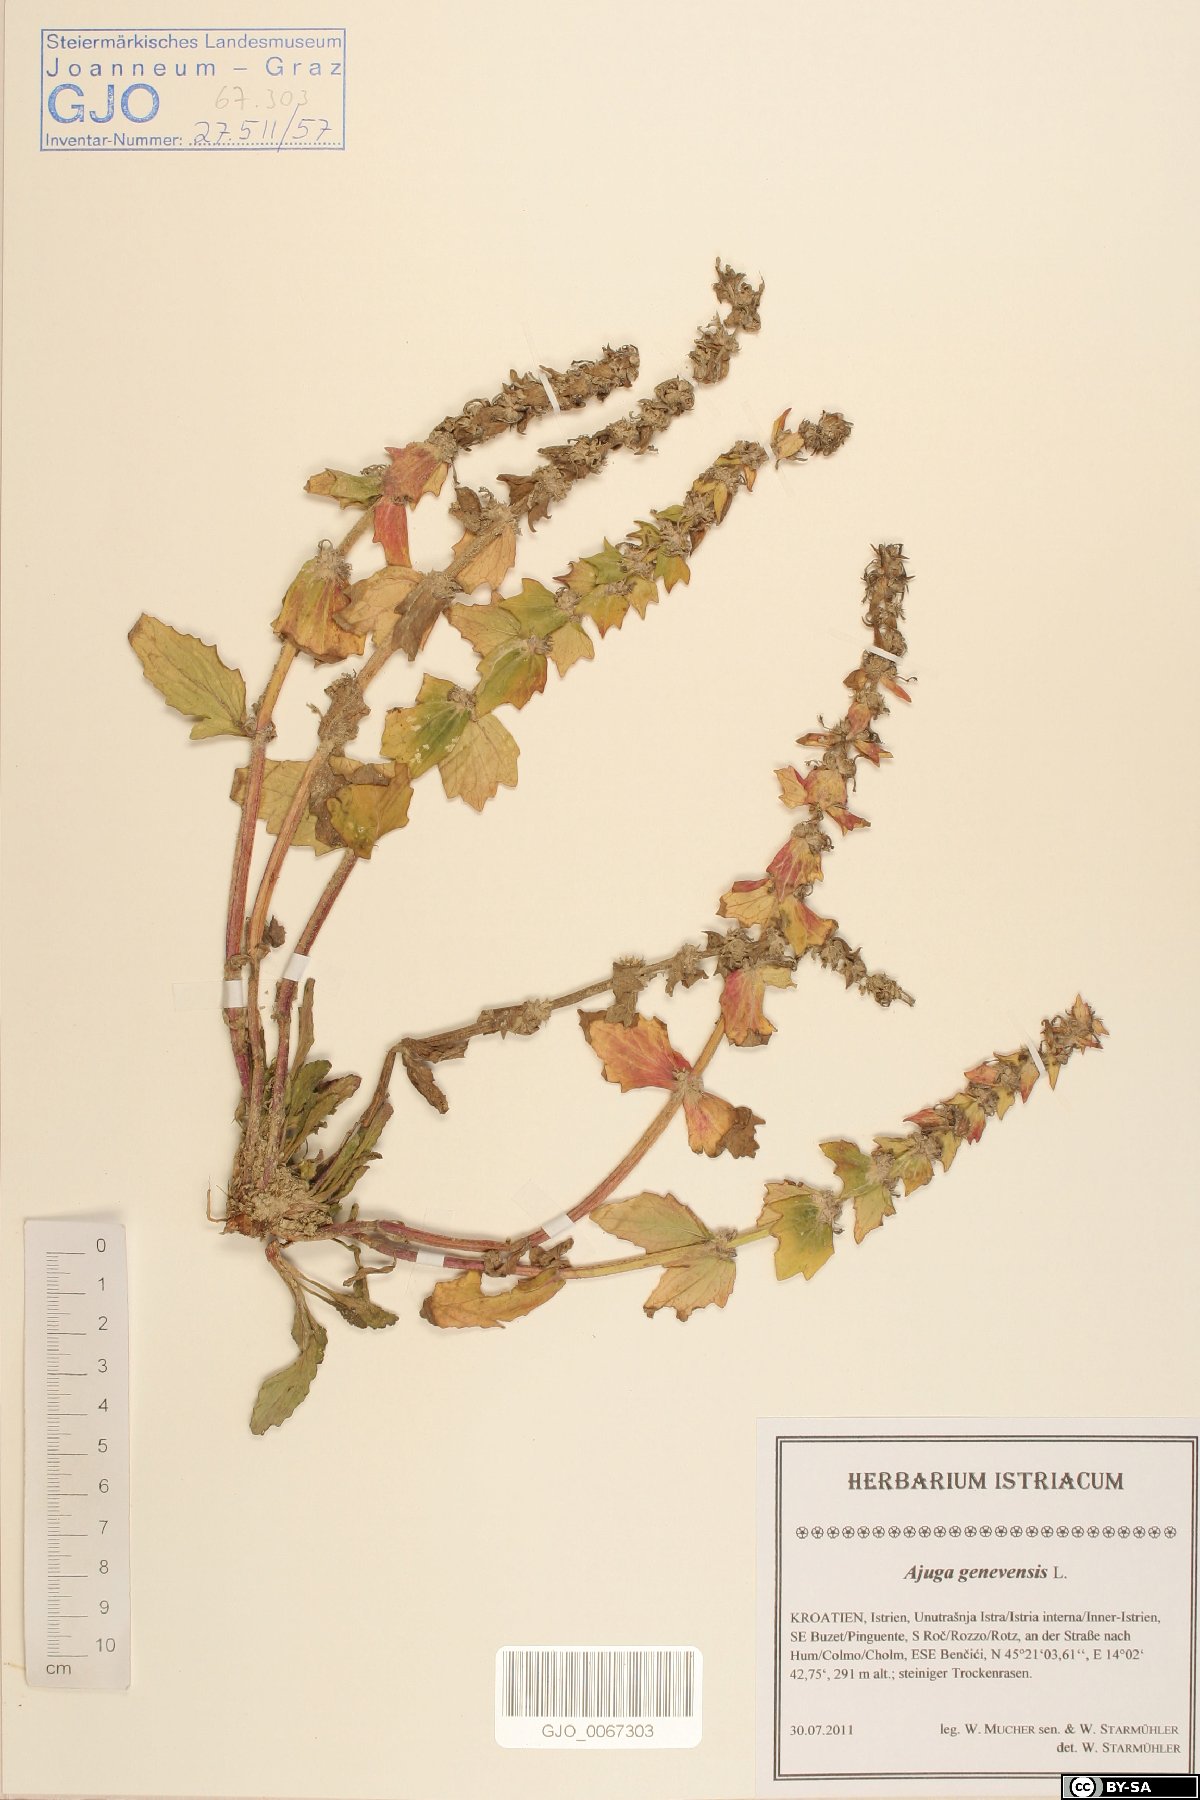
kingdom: Plantae
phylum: Tracheophyta
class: Magnoliopsida
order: Lamiales
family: Lamiaceae
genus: Ajuga
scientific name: Ajuga genevensis
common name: Blue bugle
